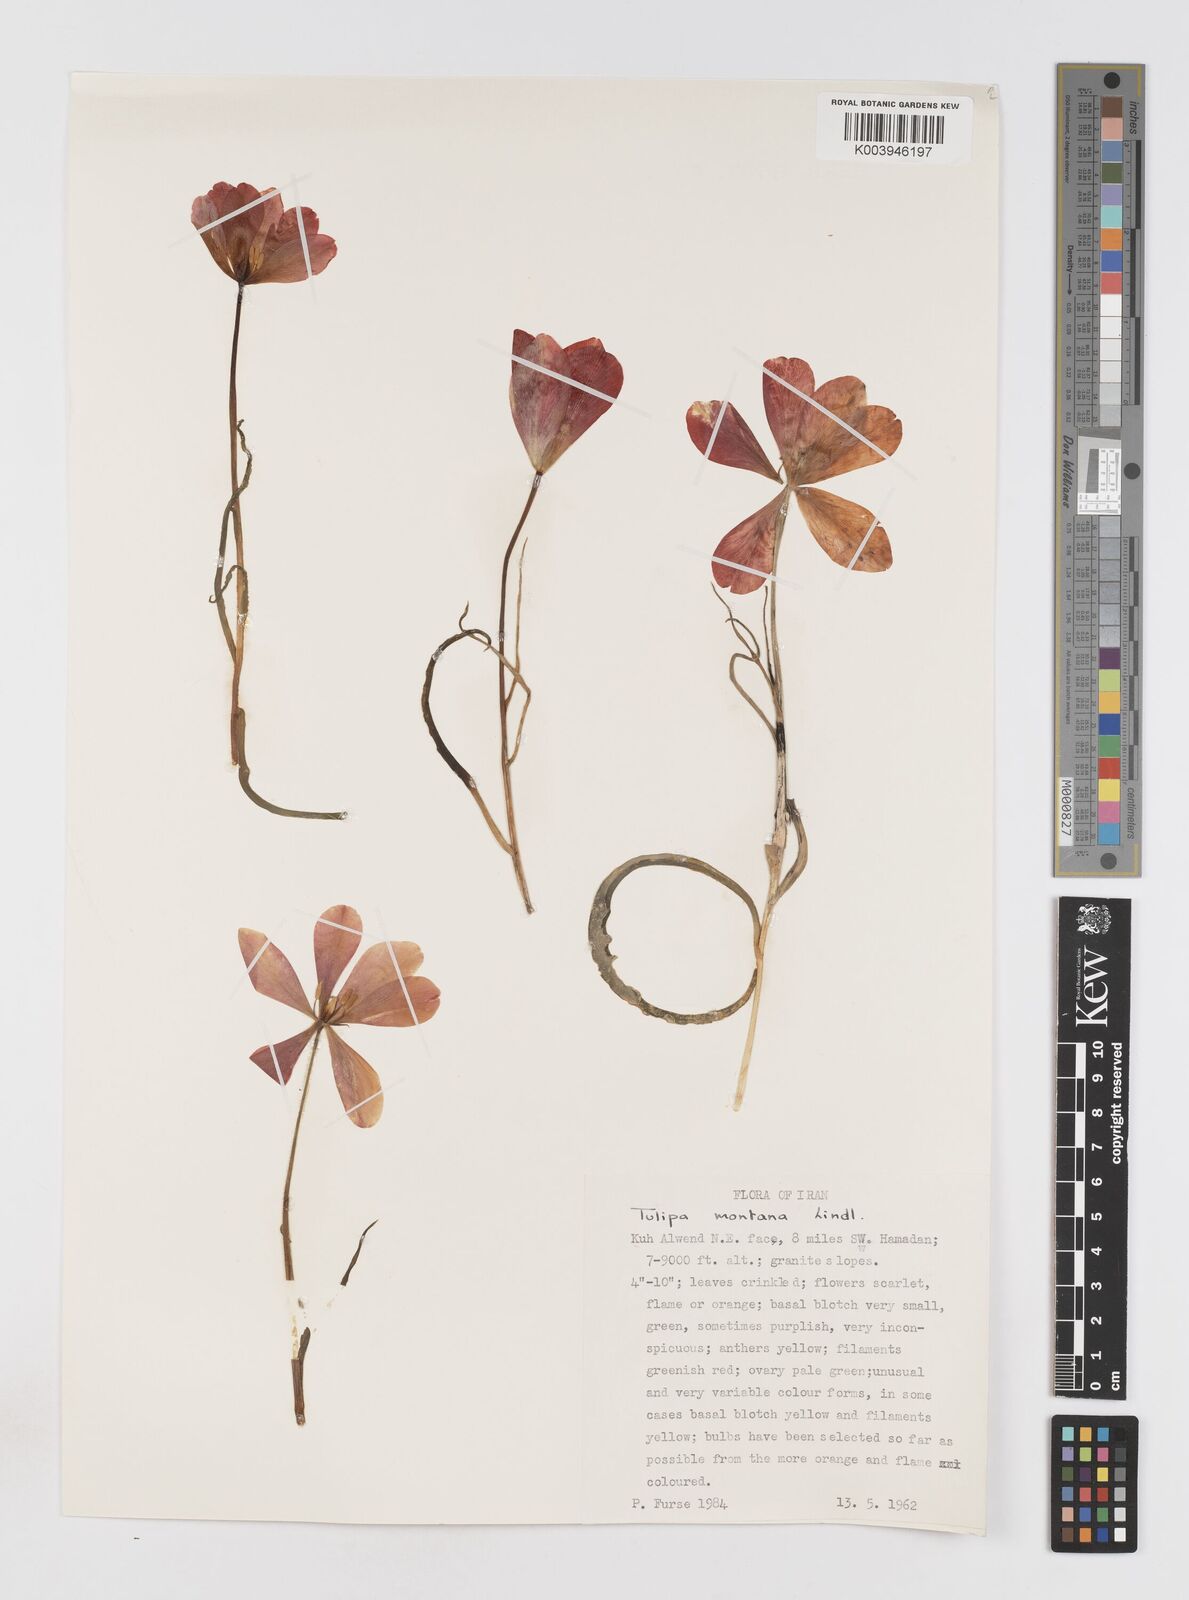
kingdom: Plantae
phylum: Tracheophyta
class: Liliopsida
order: Liliales
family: Liliaceae
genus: Tulipa
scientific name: Tulipa montana
